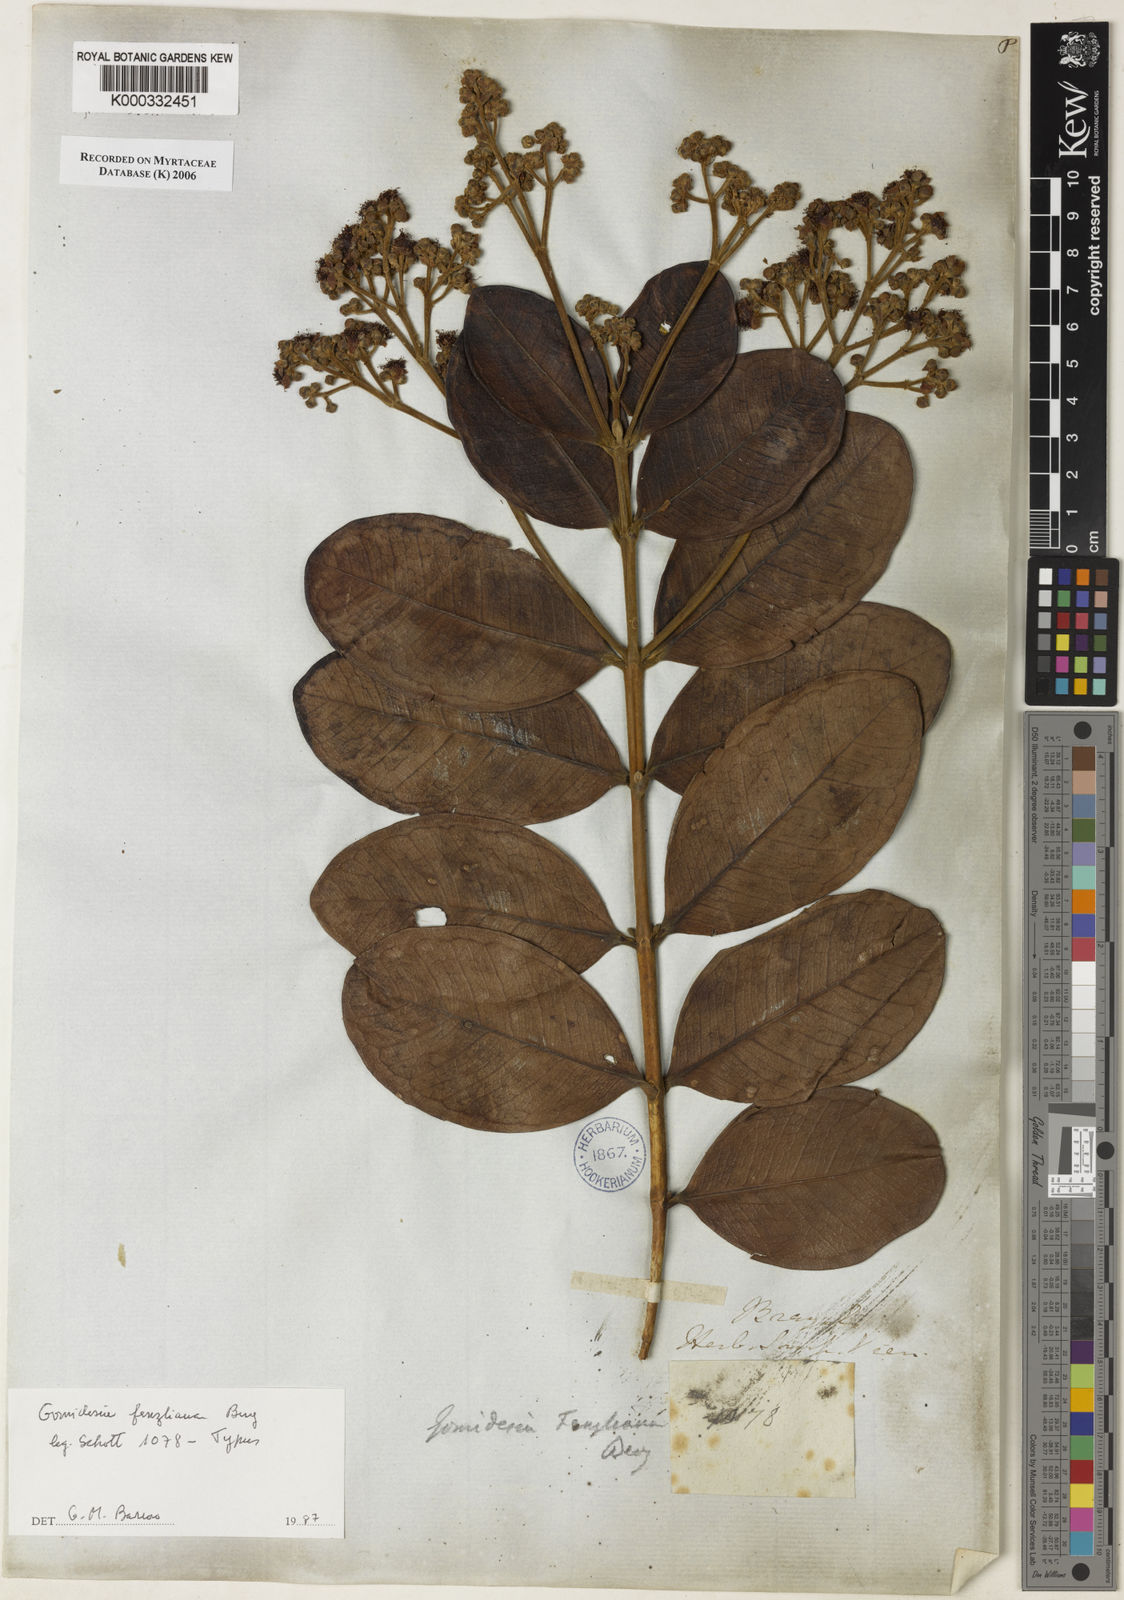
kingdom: Plantae
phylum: Tracheophyta
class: Magnoliopsida
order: Myrtales
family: Myrtaceae
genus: Myrcia
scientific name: Myrcia ilheosensis
